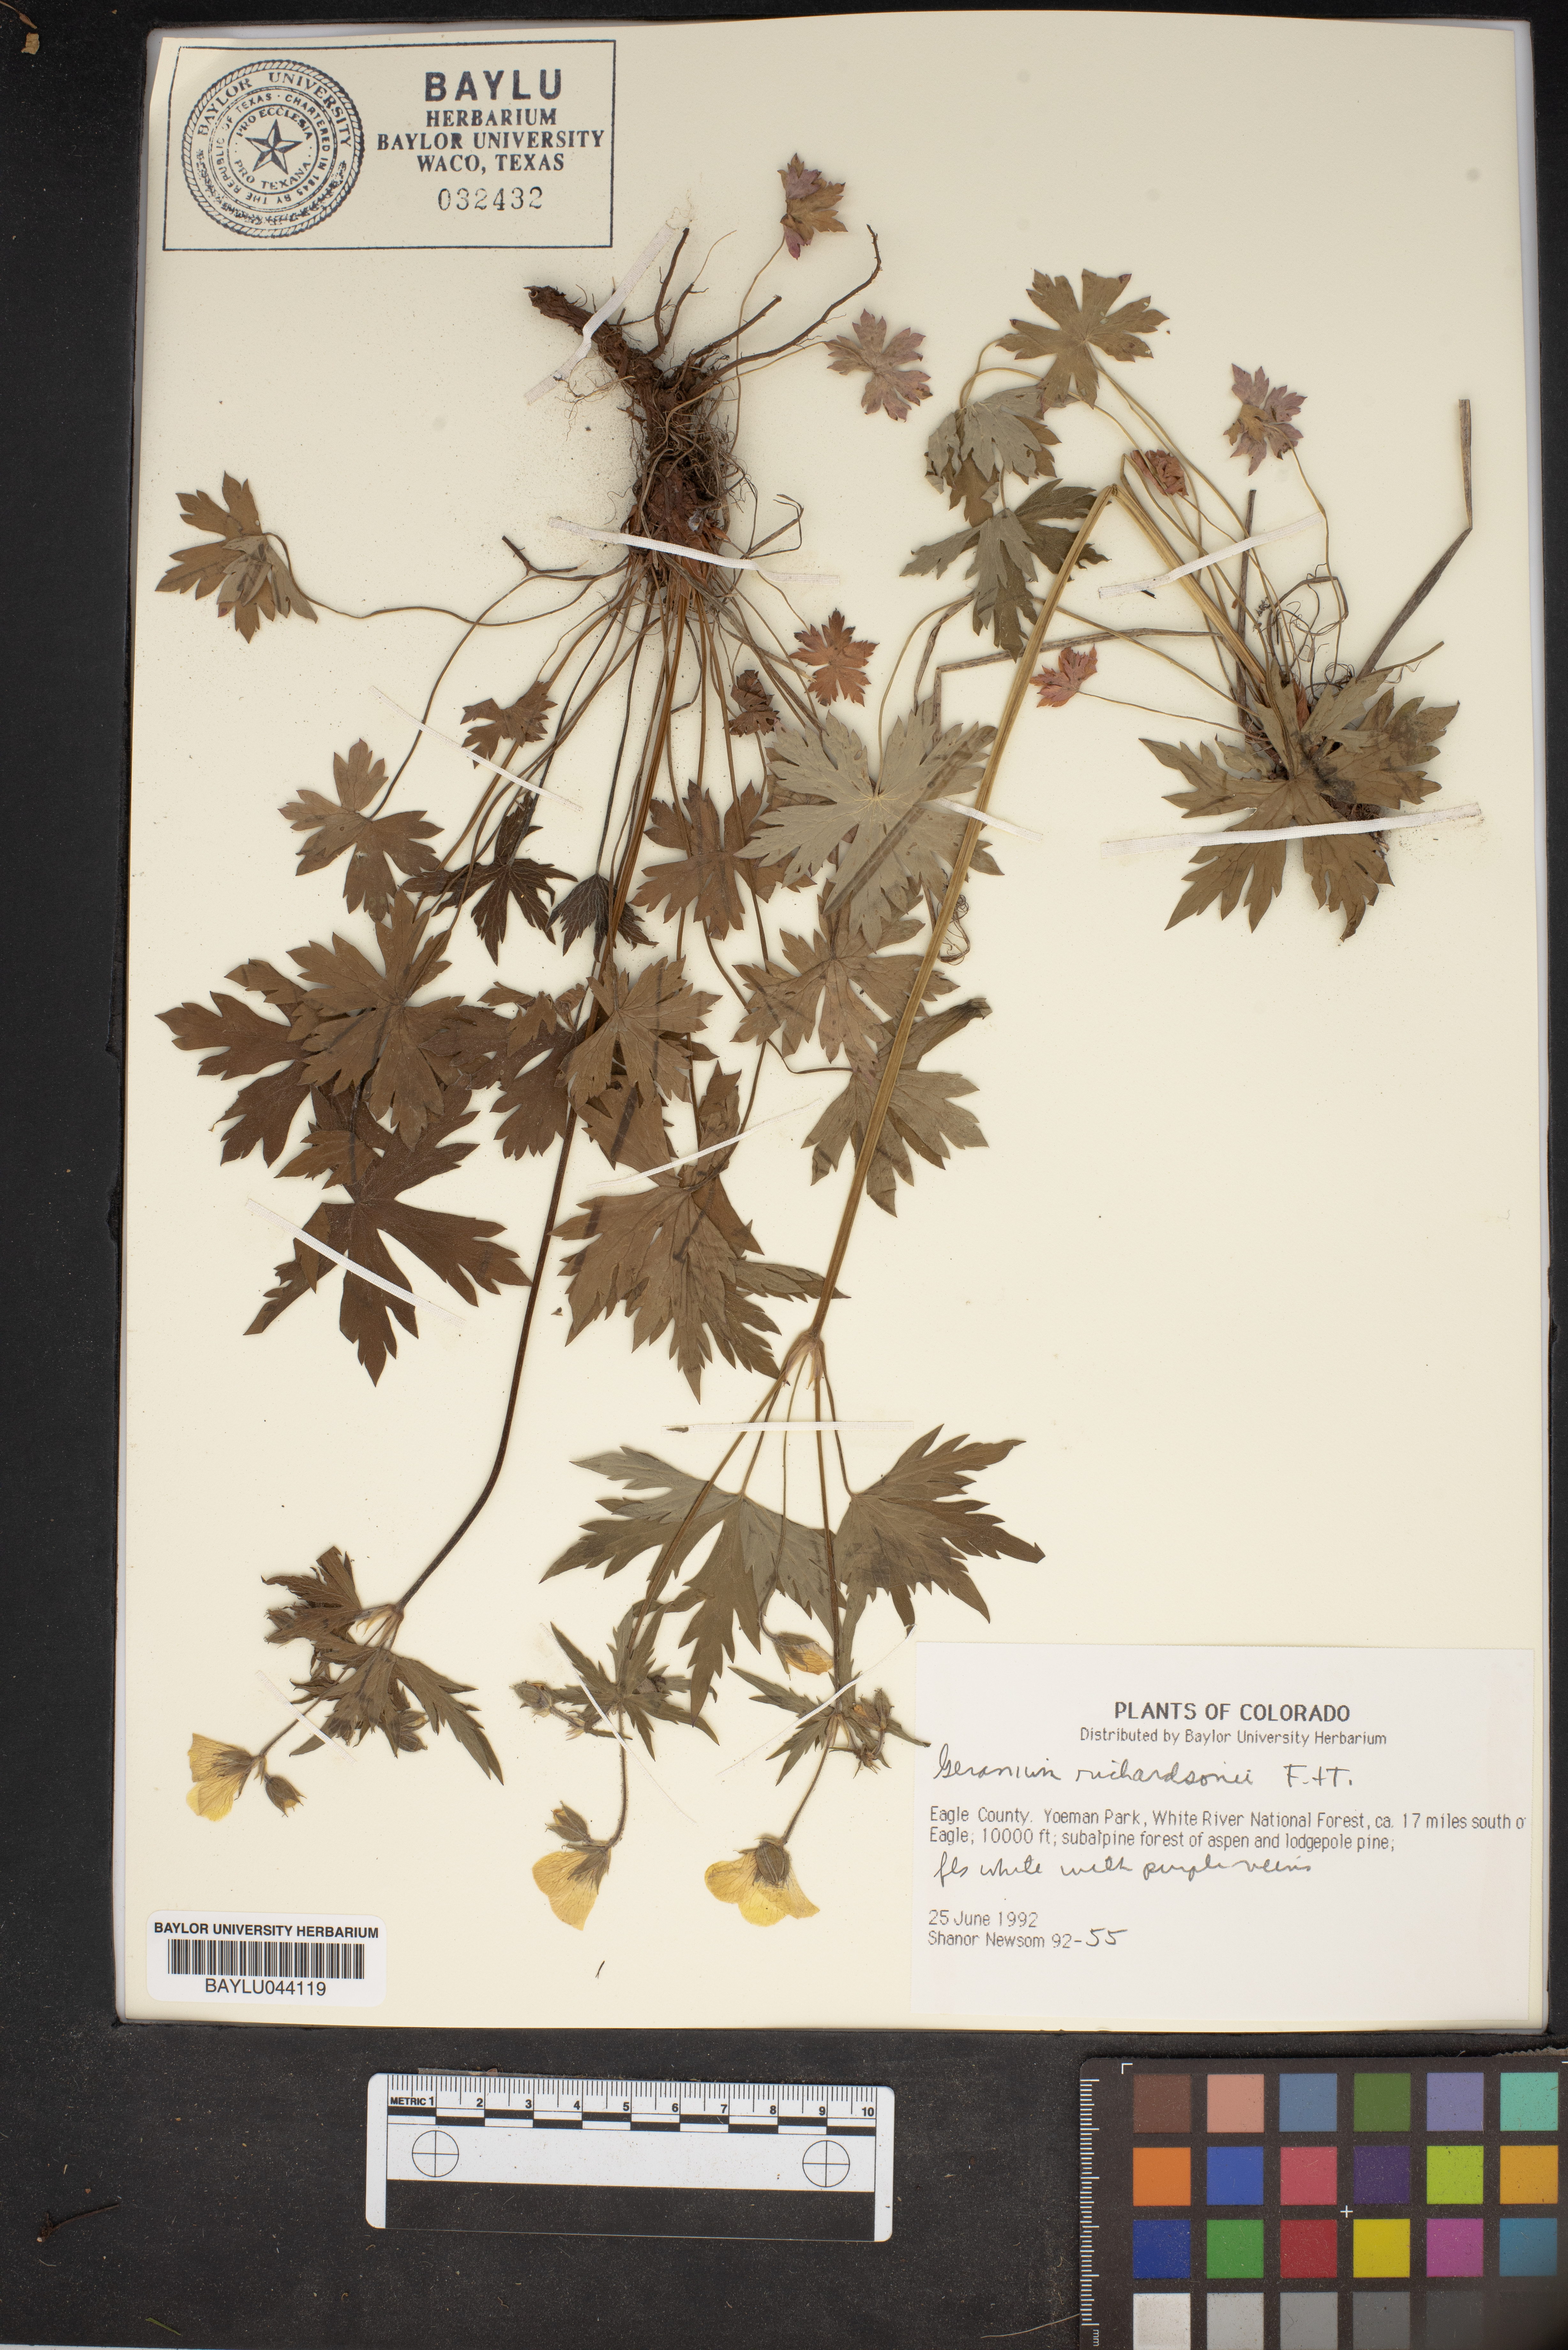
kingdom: Plantae
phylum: Tracheophyta
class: Magnoliopsida
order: Geraniales
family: Geraniaceae
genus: Geranium
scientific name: Geranium richardsonii
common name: Richardson's crane's-bill
